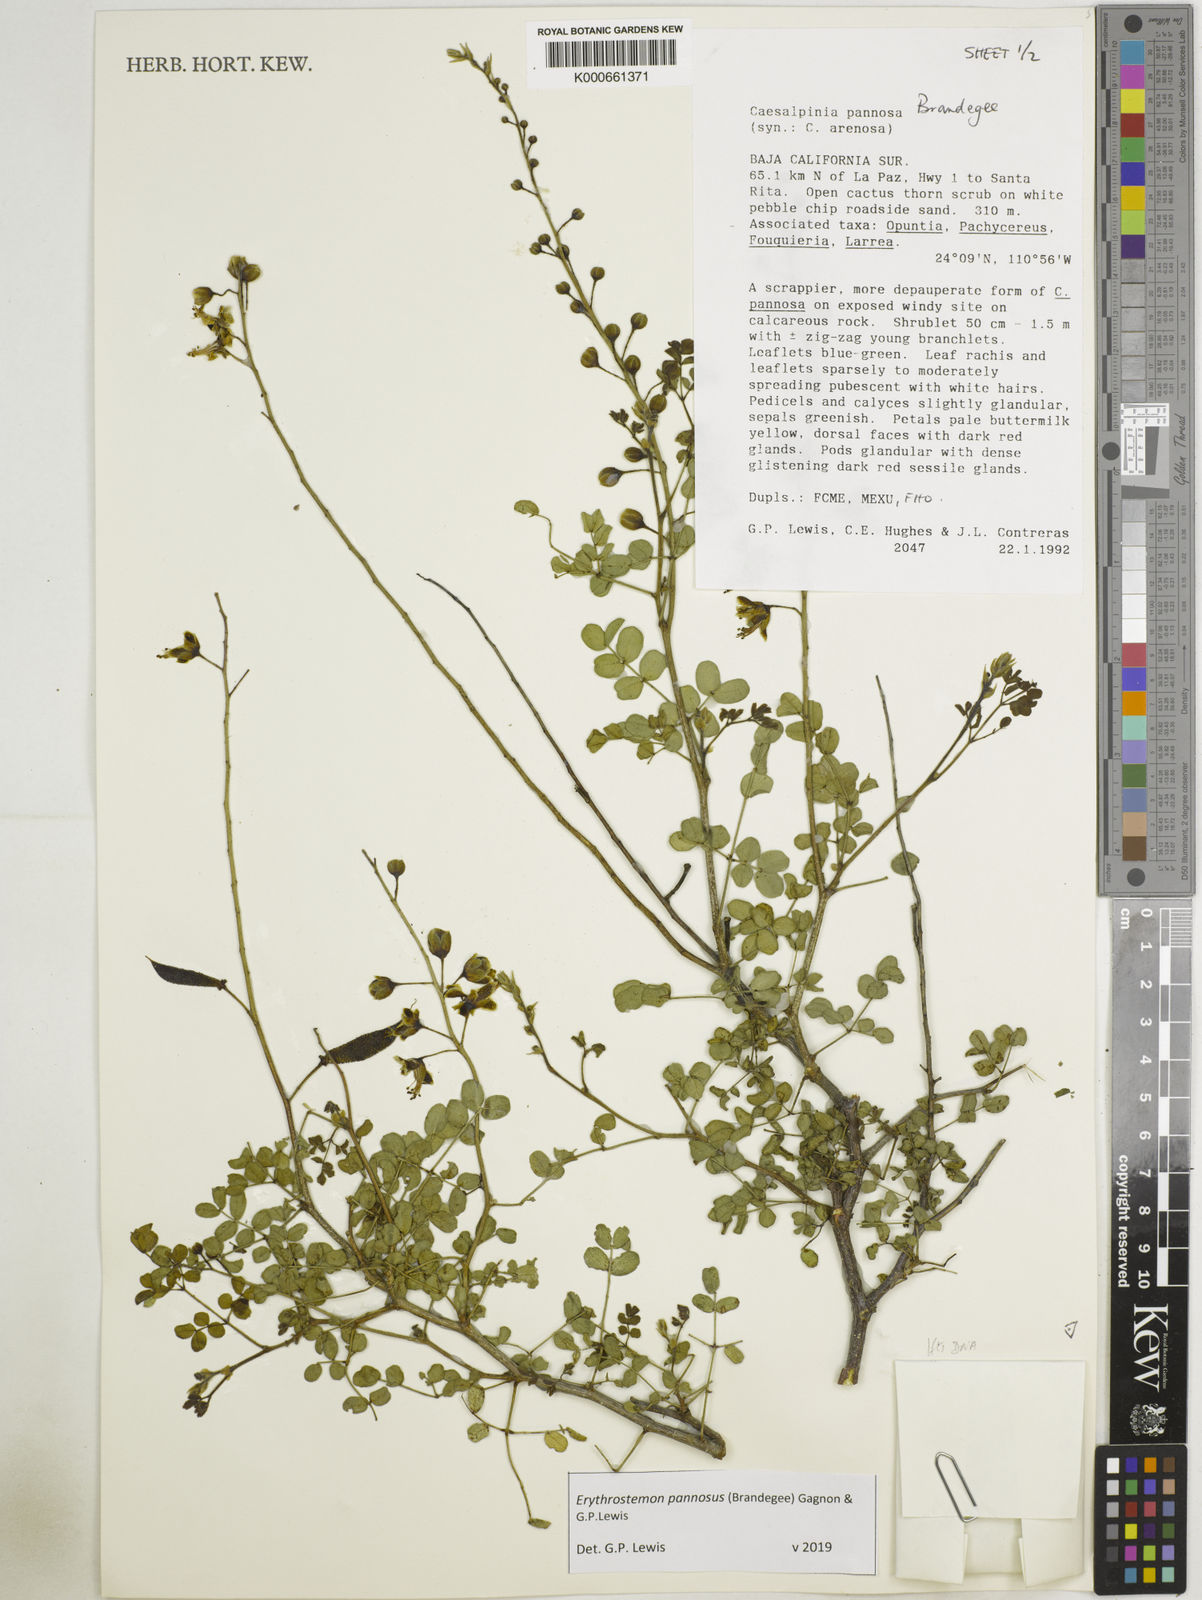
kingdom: Plantae
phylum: Tracheophyta
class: Magnoliopsida
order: Fabales
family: Fabaceae
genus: Erythrostemon
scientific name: Erythrostemon pannosus
